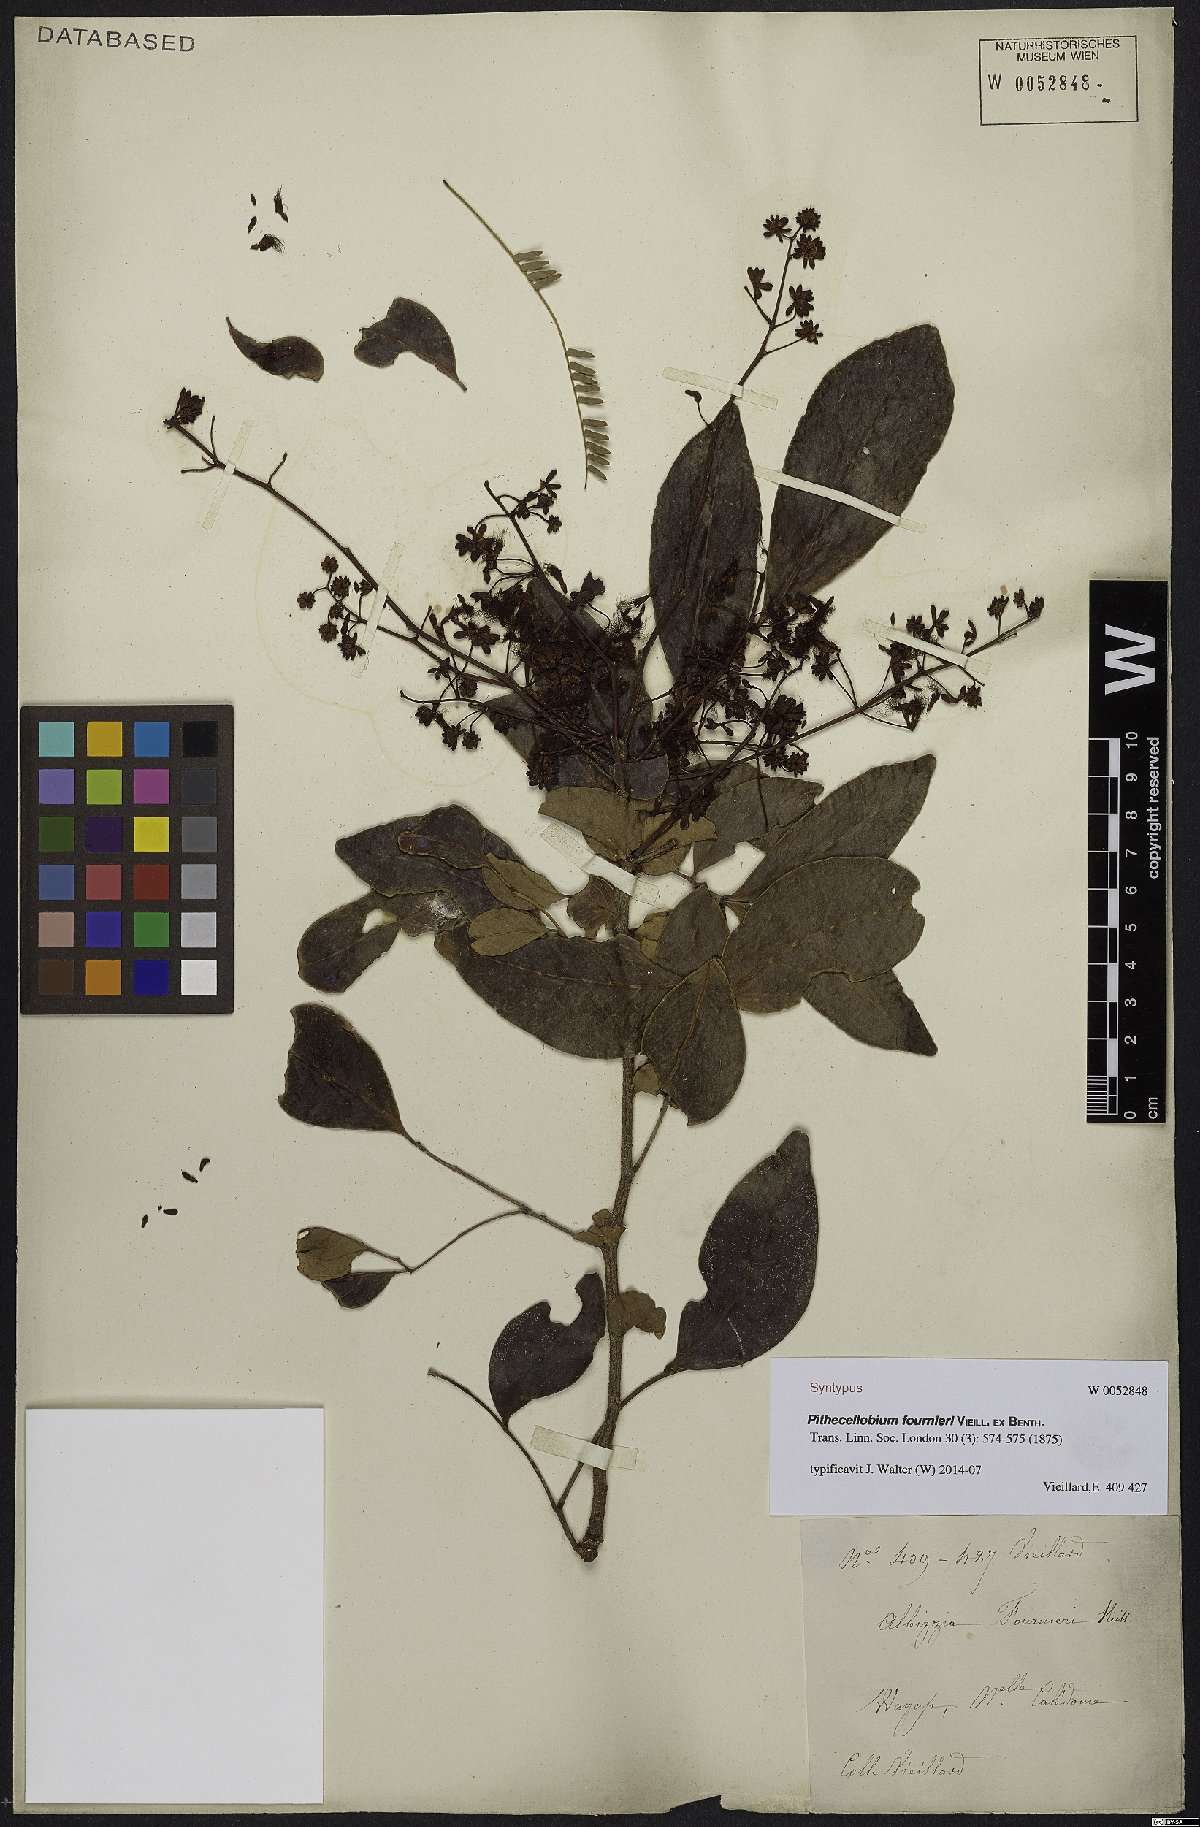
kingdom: Plantae
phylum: Tracheophyta
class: Magnoliopsida
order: Fabales
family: Fabaceae
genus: Archidendropsis
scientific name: Archidendropsis fournieri
